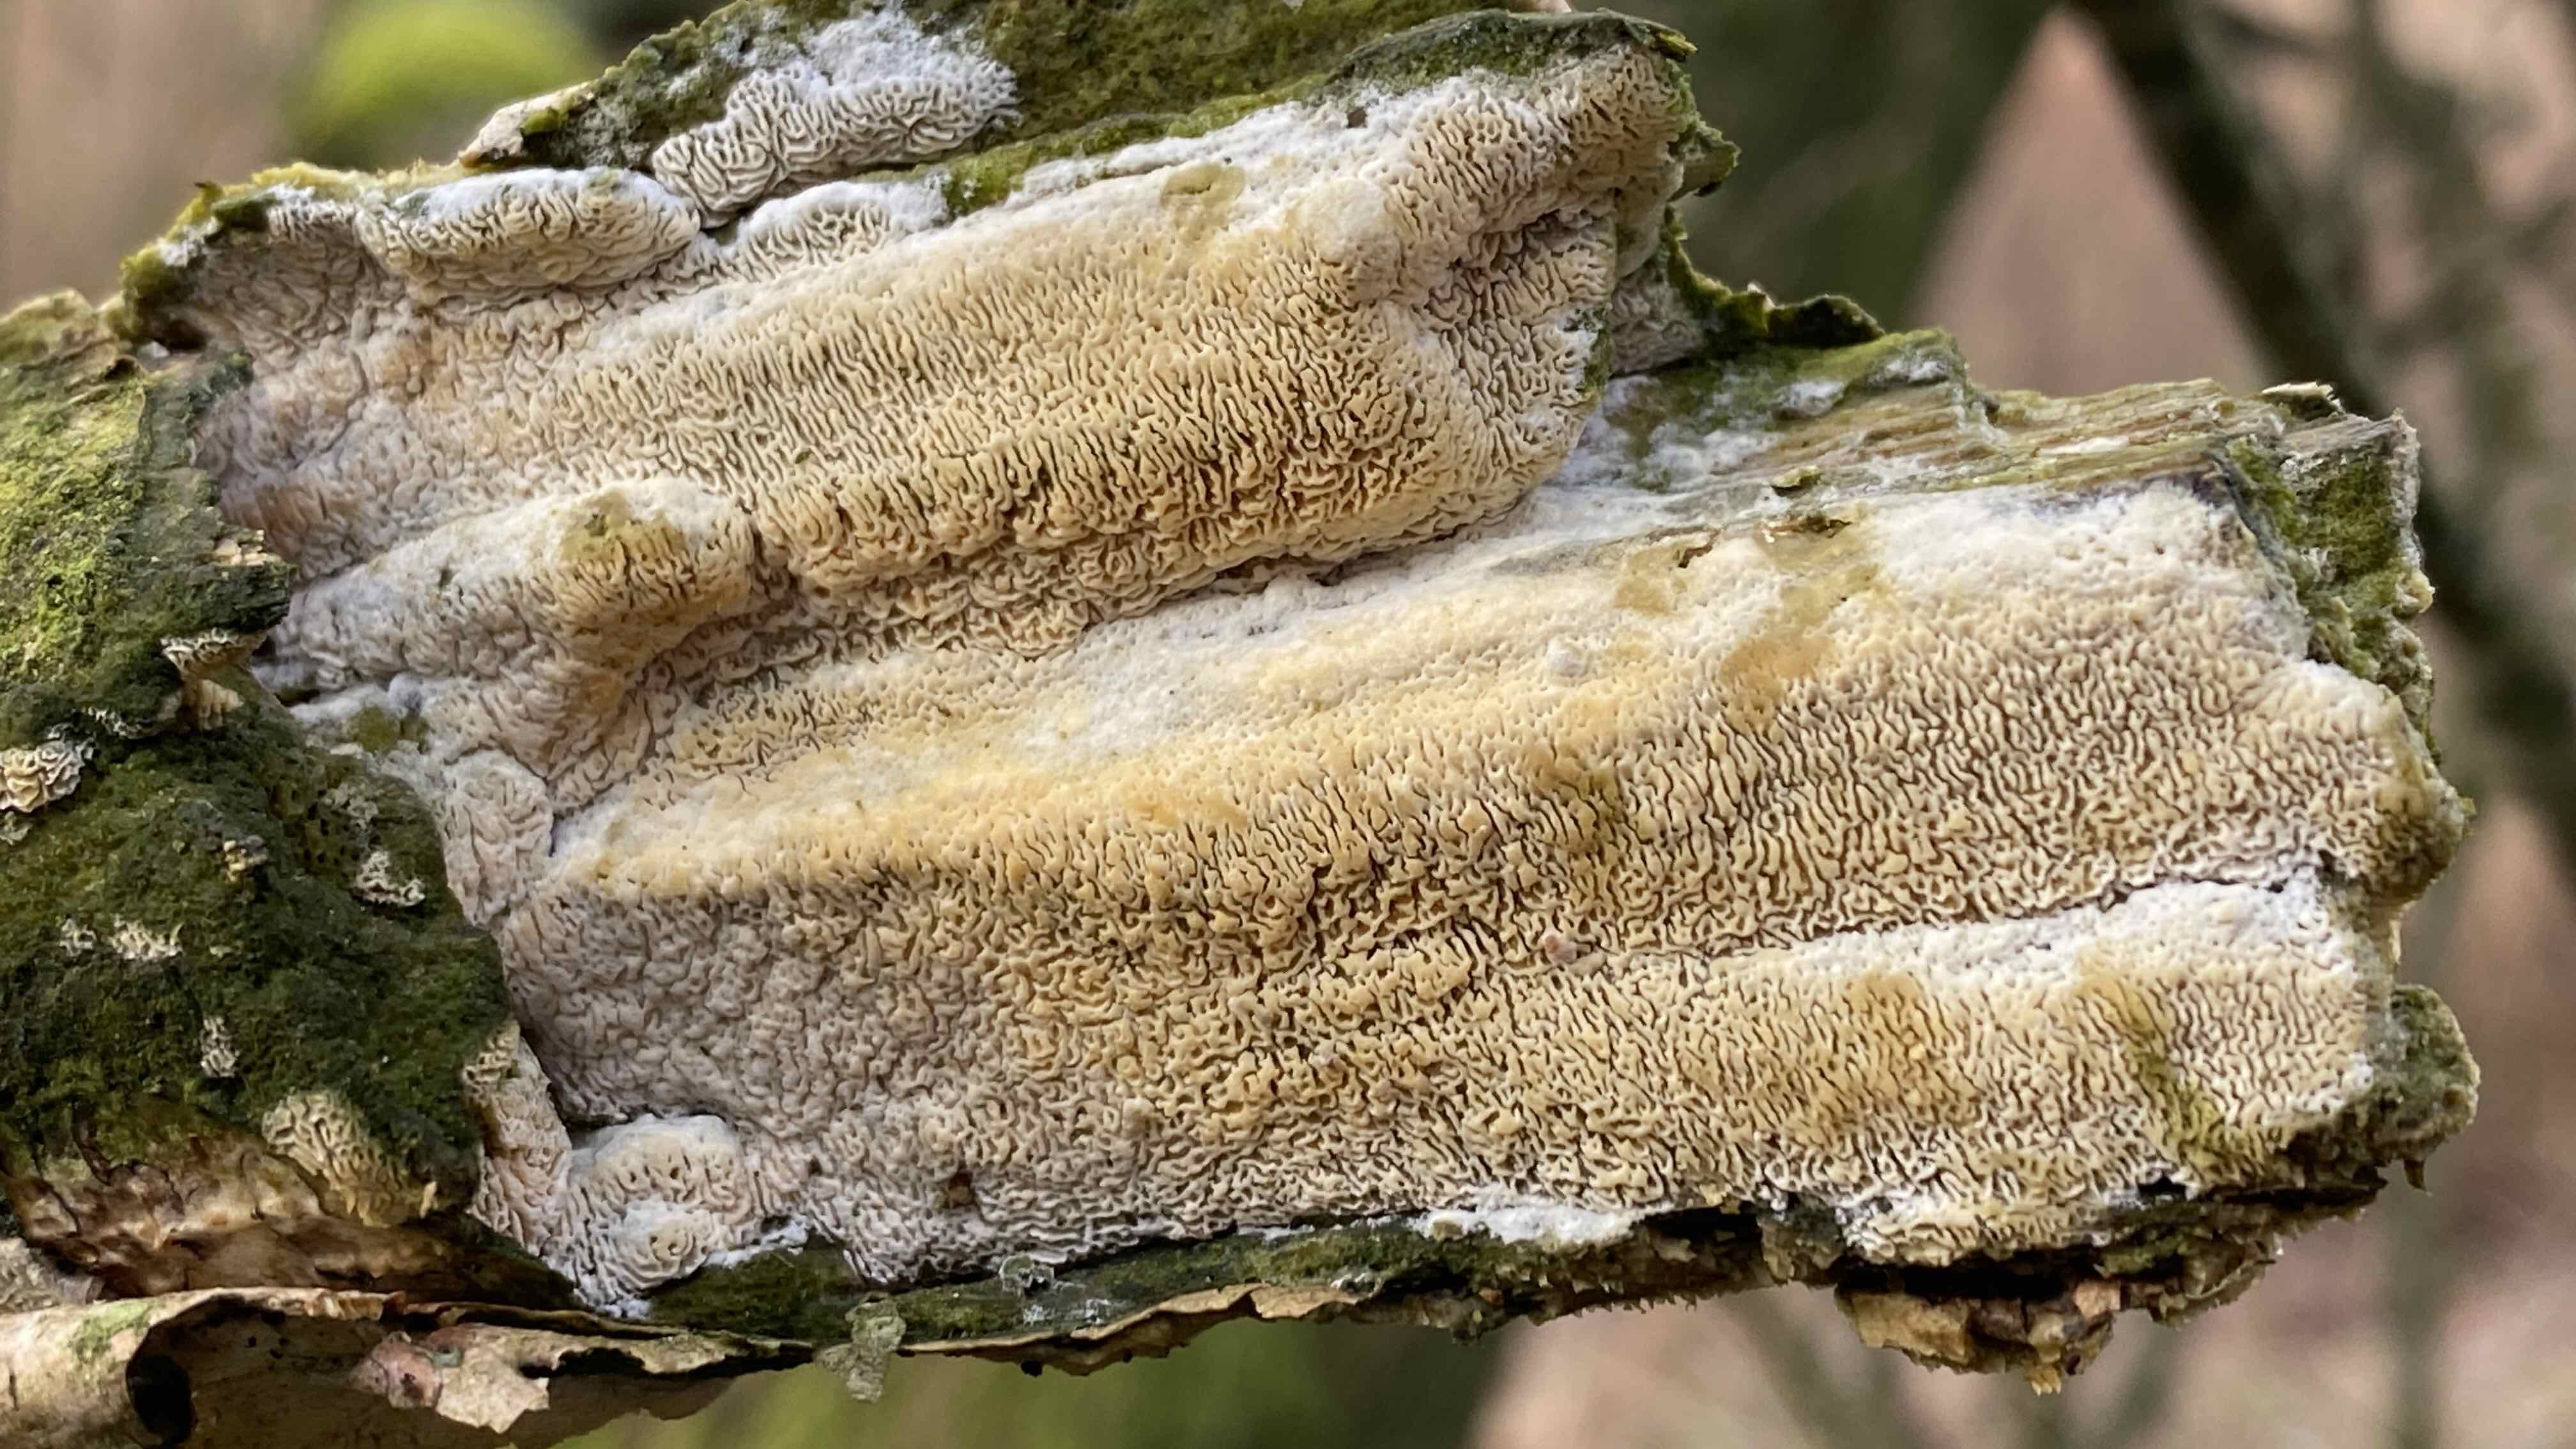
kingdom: Fungi
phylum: Basidiomycota
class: Agaricomycetes
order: Hymenochaetales
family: Schizoporaceae
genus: Xylodon
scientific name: Xylodon subtropicus
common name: labyrint-tandsvamp
